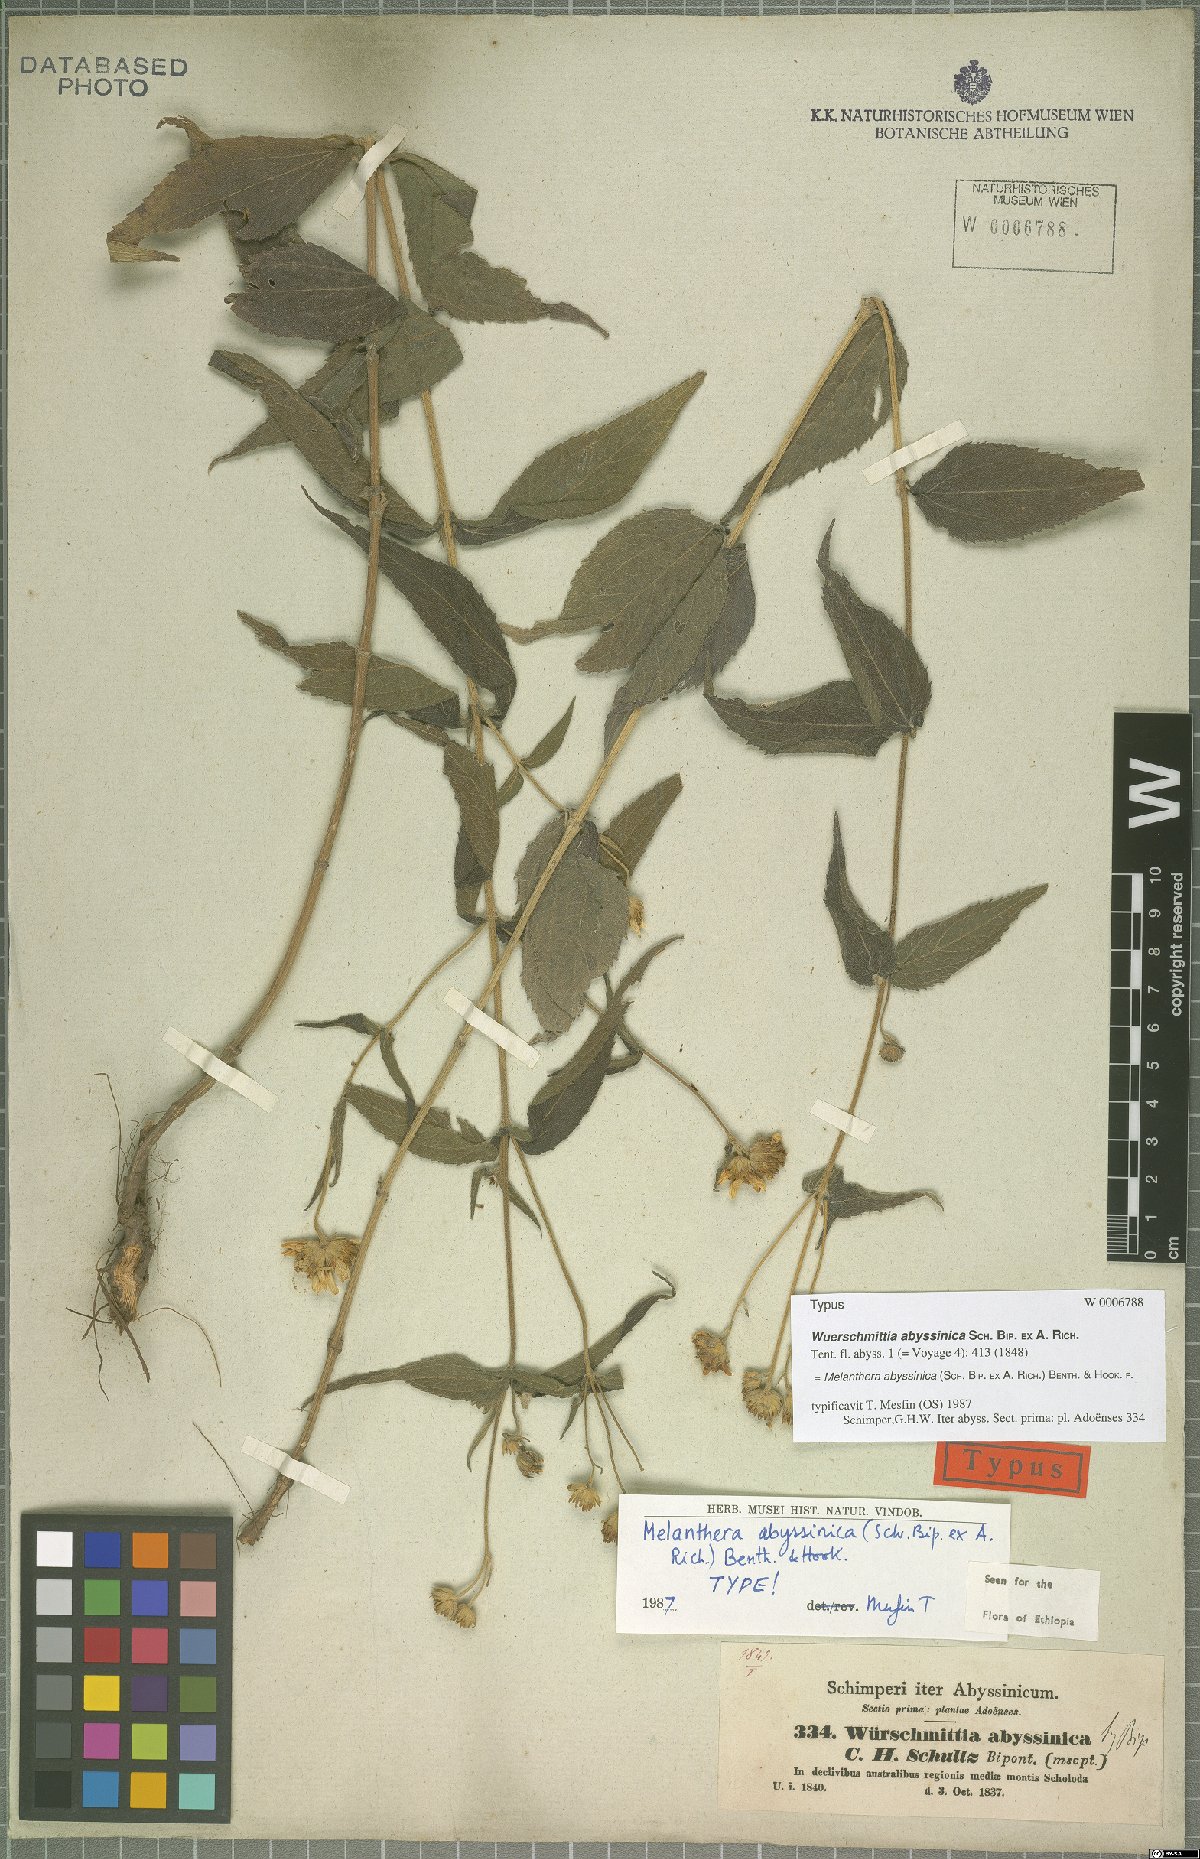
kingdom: Plantae
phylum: Tracheophyta
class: Magnoliopsida
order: Asterales
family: Asteraceae
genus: Lipotriche
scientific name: Lipotriche abyssinica
